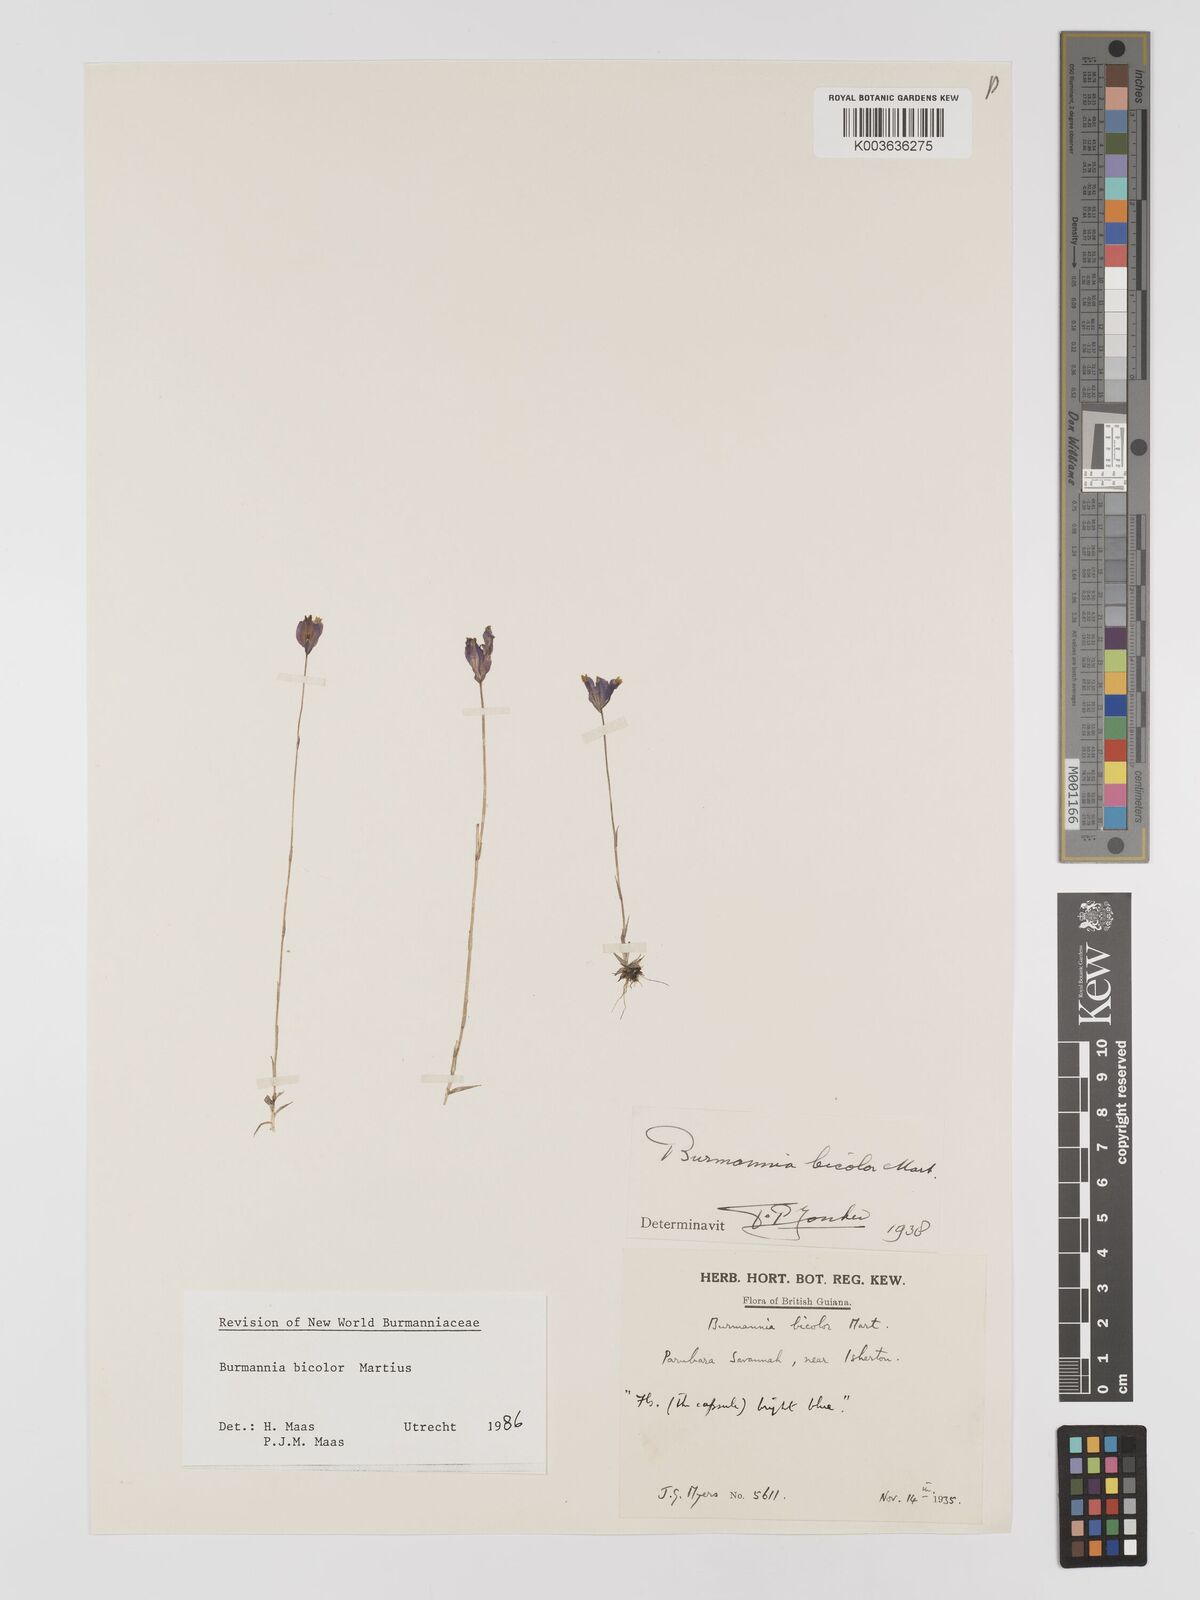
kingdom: Plantae
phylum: Tracheophyta
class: Liliopsida
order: Dioscoreales
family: Burmanniaceae
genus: Burmannia
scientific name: Burmannia bicolor
